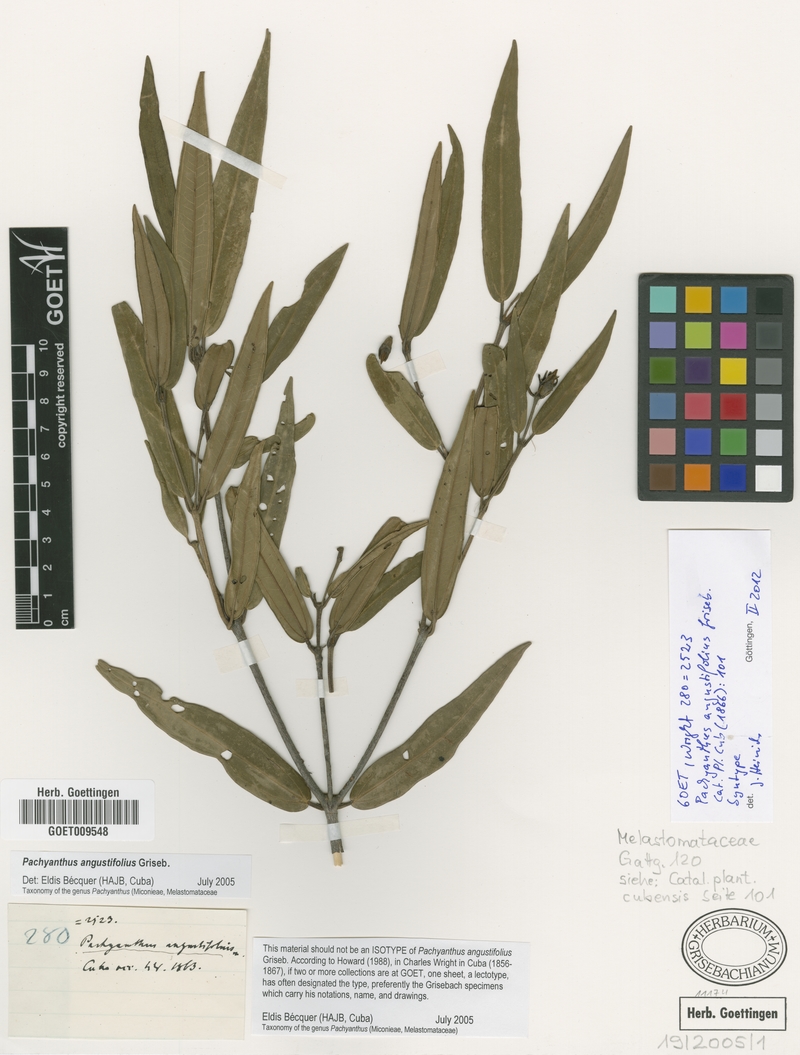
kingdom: Plantae
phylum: Tracheophyta
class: Magnoliopsida
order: Myrtales
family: Melastomataceae
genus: Miconia
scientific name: Miconia secundoangustifolia
